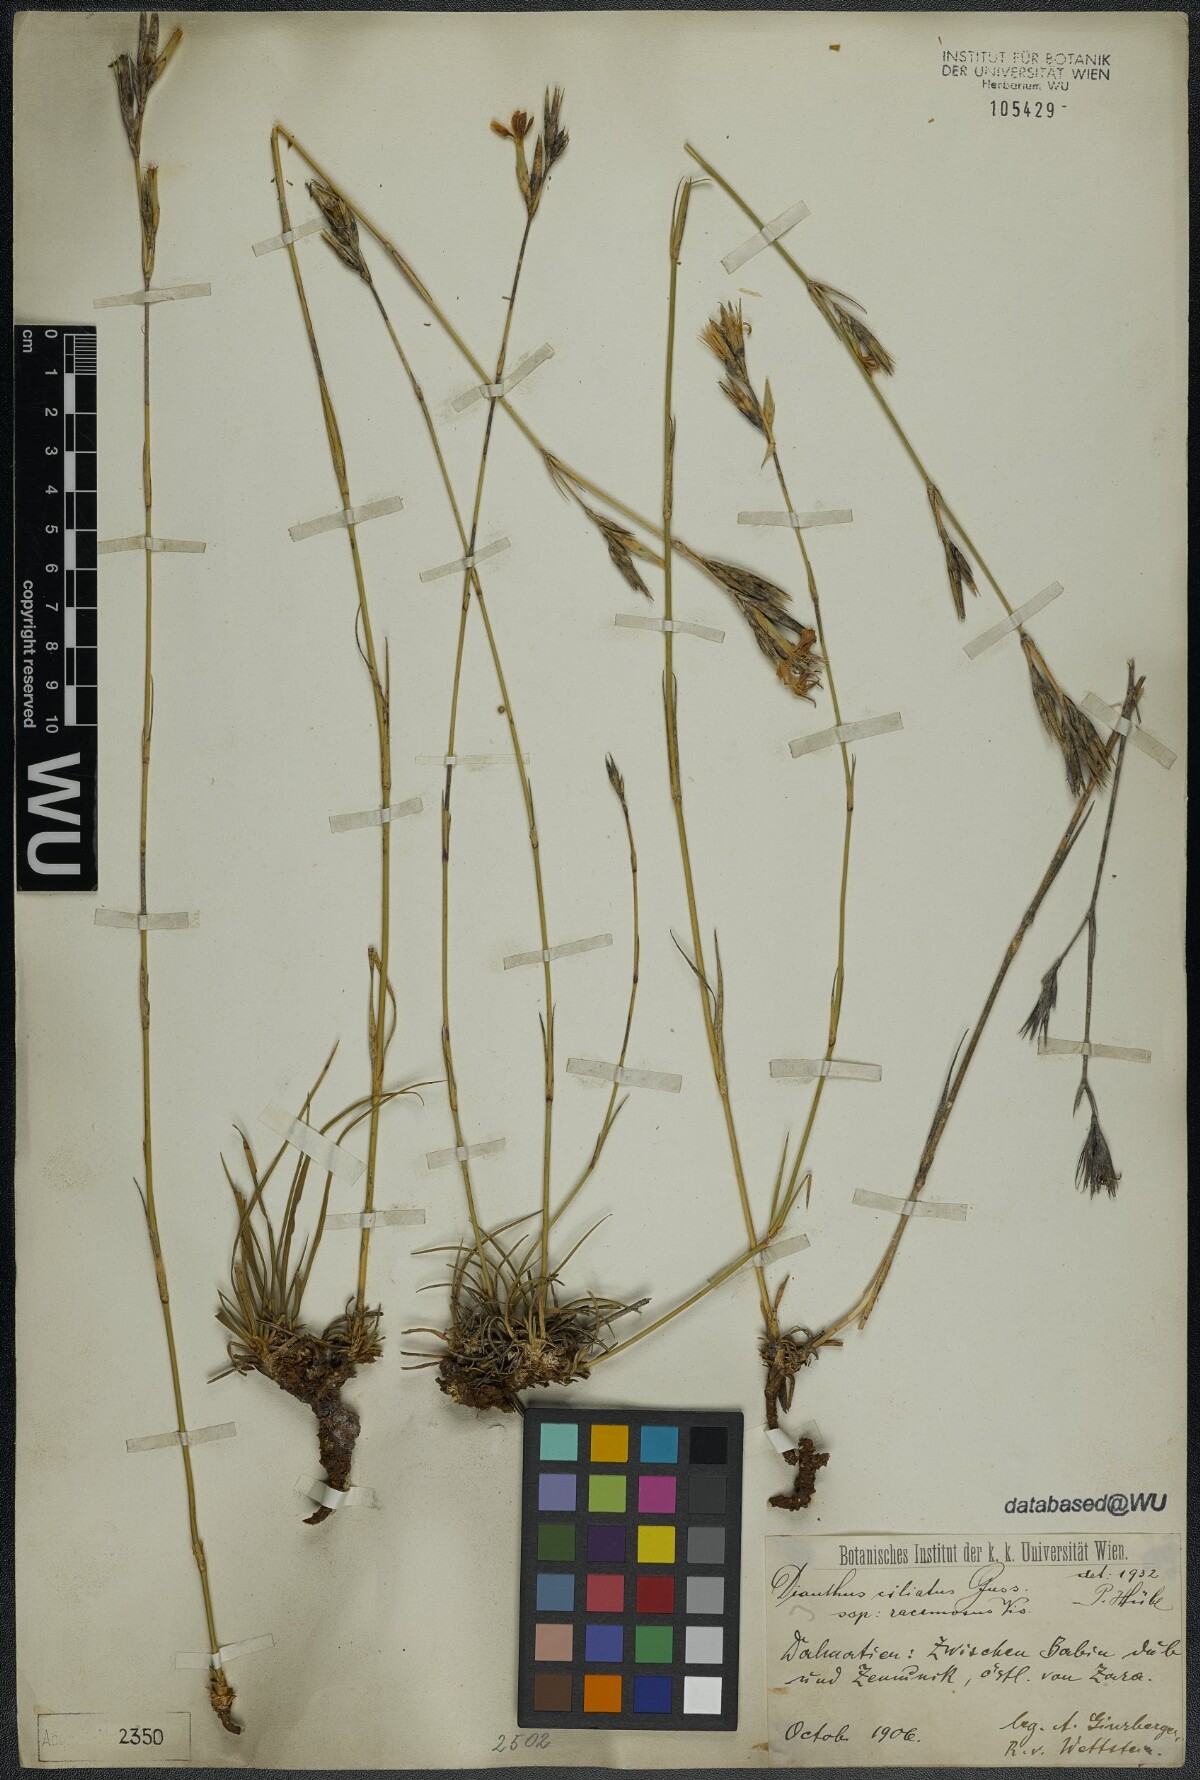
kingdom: Plantae
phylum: Tracheophyta
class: Magnoliopsida
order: Caryophyllales
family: Caryophyllaceae
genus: Dianthus
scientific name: Dianthus ciliatus
